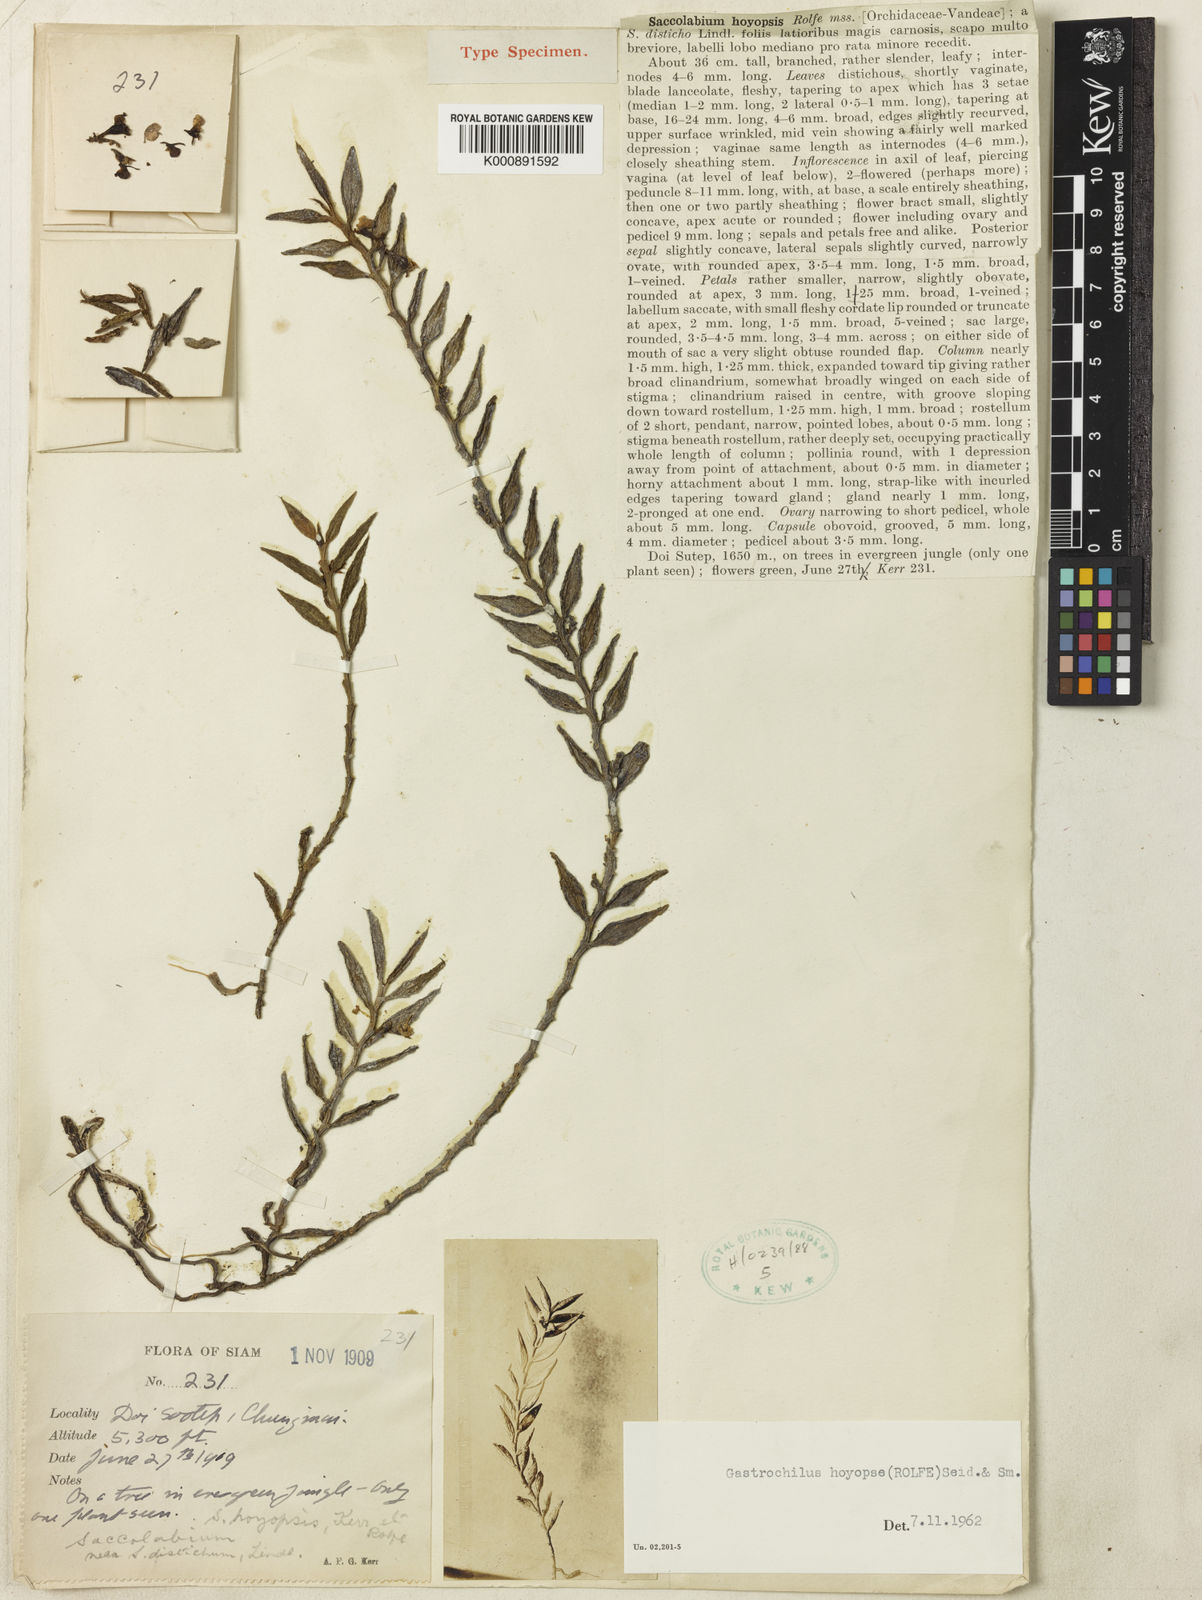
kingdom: Plantae
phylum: Tracheophyta
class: Liliopsida
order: Asparagales
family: Orchidaceae
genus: Gastrochilus
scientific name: Gastrochilus intermedius
